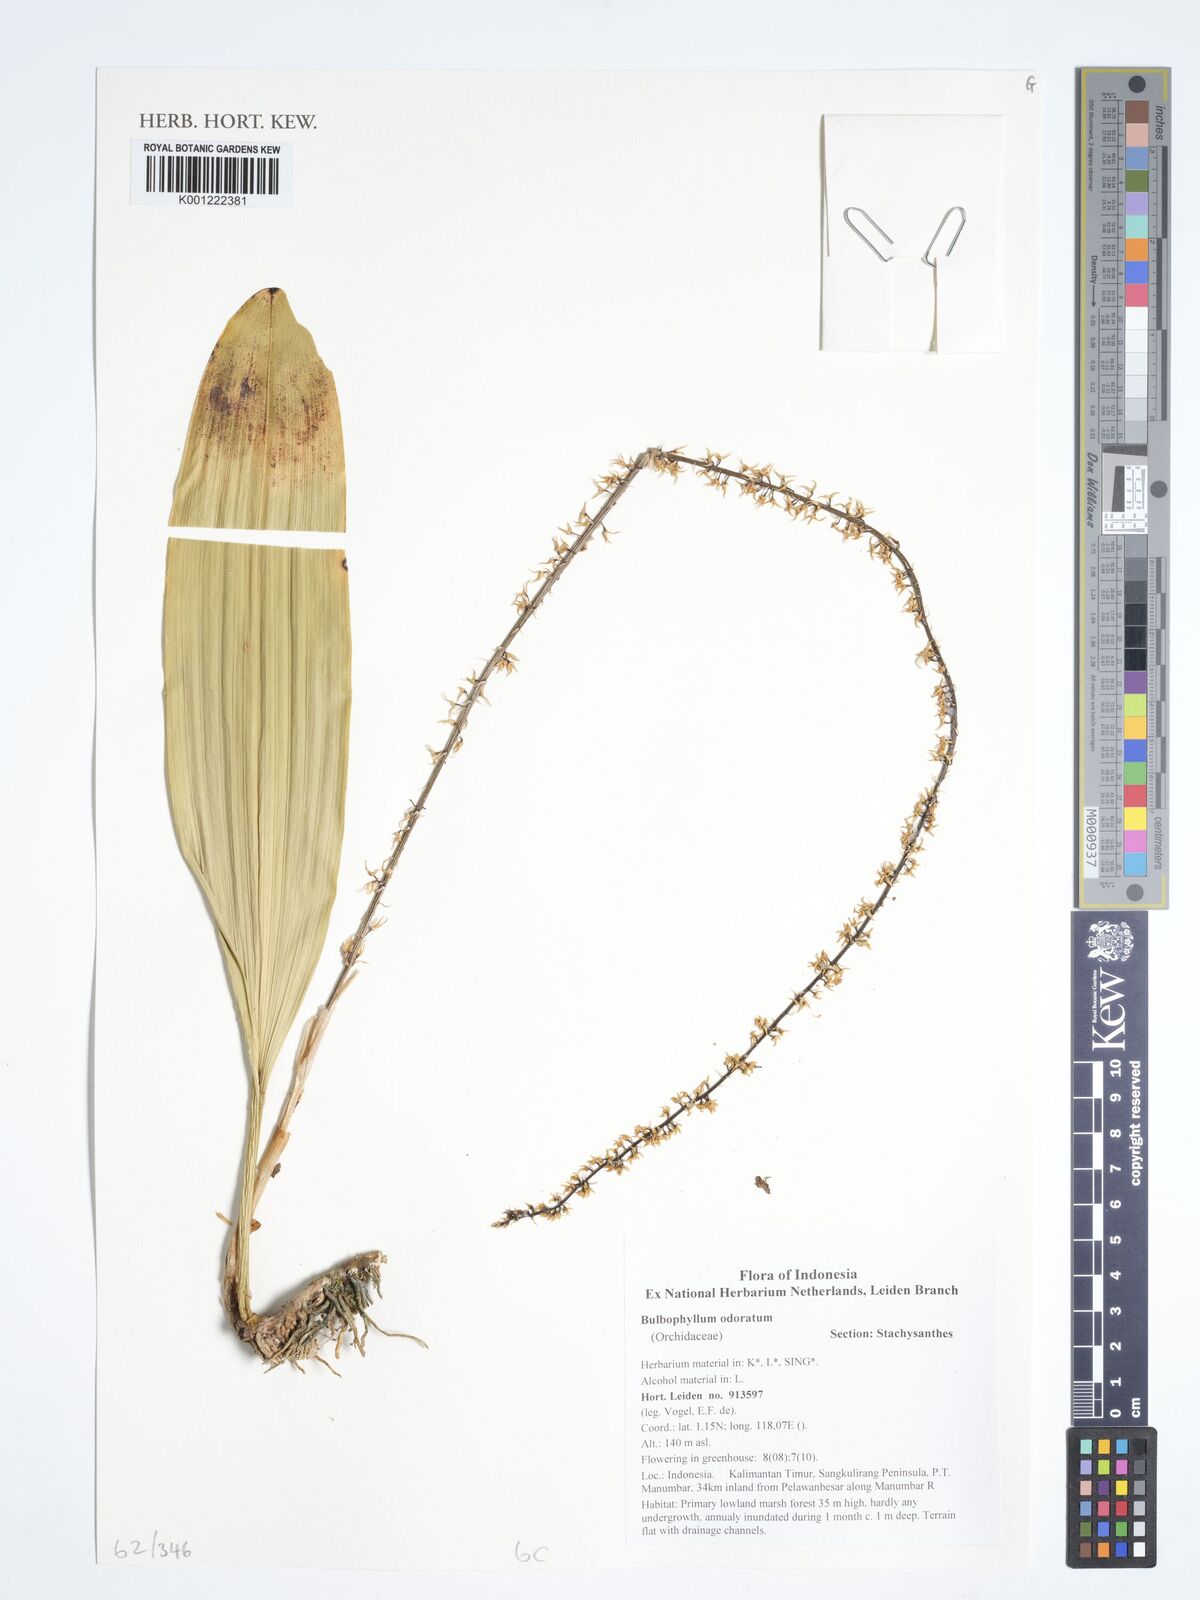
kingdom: Plantae
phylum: Tracheophyta
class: Liliopsida
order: Asparagales
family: Orchidaceae
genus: Bulbophyllum
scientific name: Bulbophyllum odoratum
